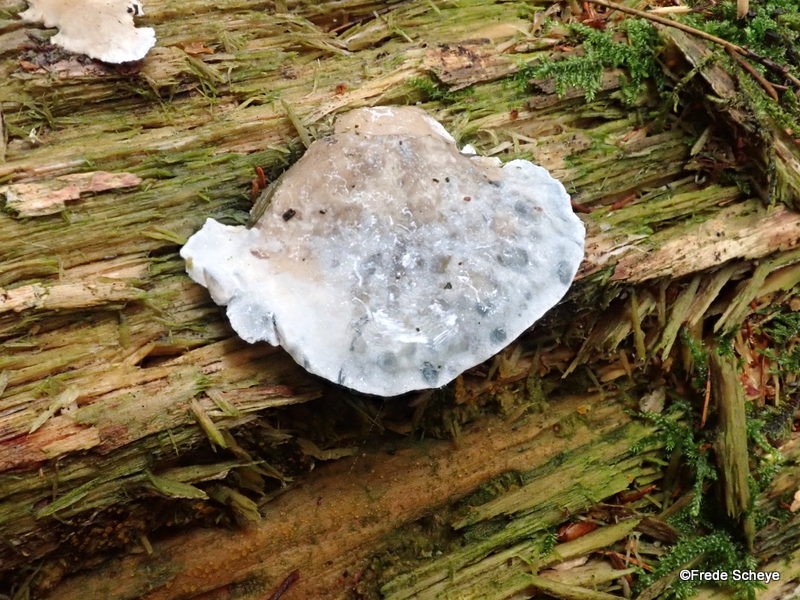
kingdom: Fungi
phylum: Basidiomycota
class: Agaricomycetes
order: Polyporales
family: Polyporaceae
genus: Cyanosporus
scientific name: Cyanosporus caesius
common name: blålig kødporesvamp
